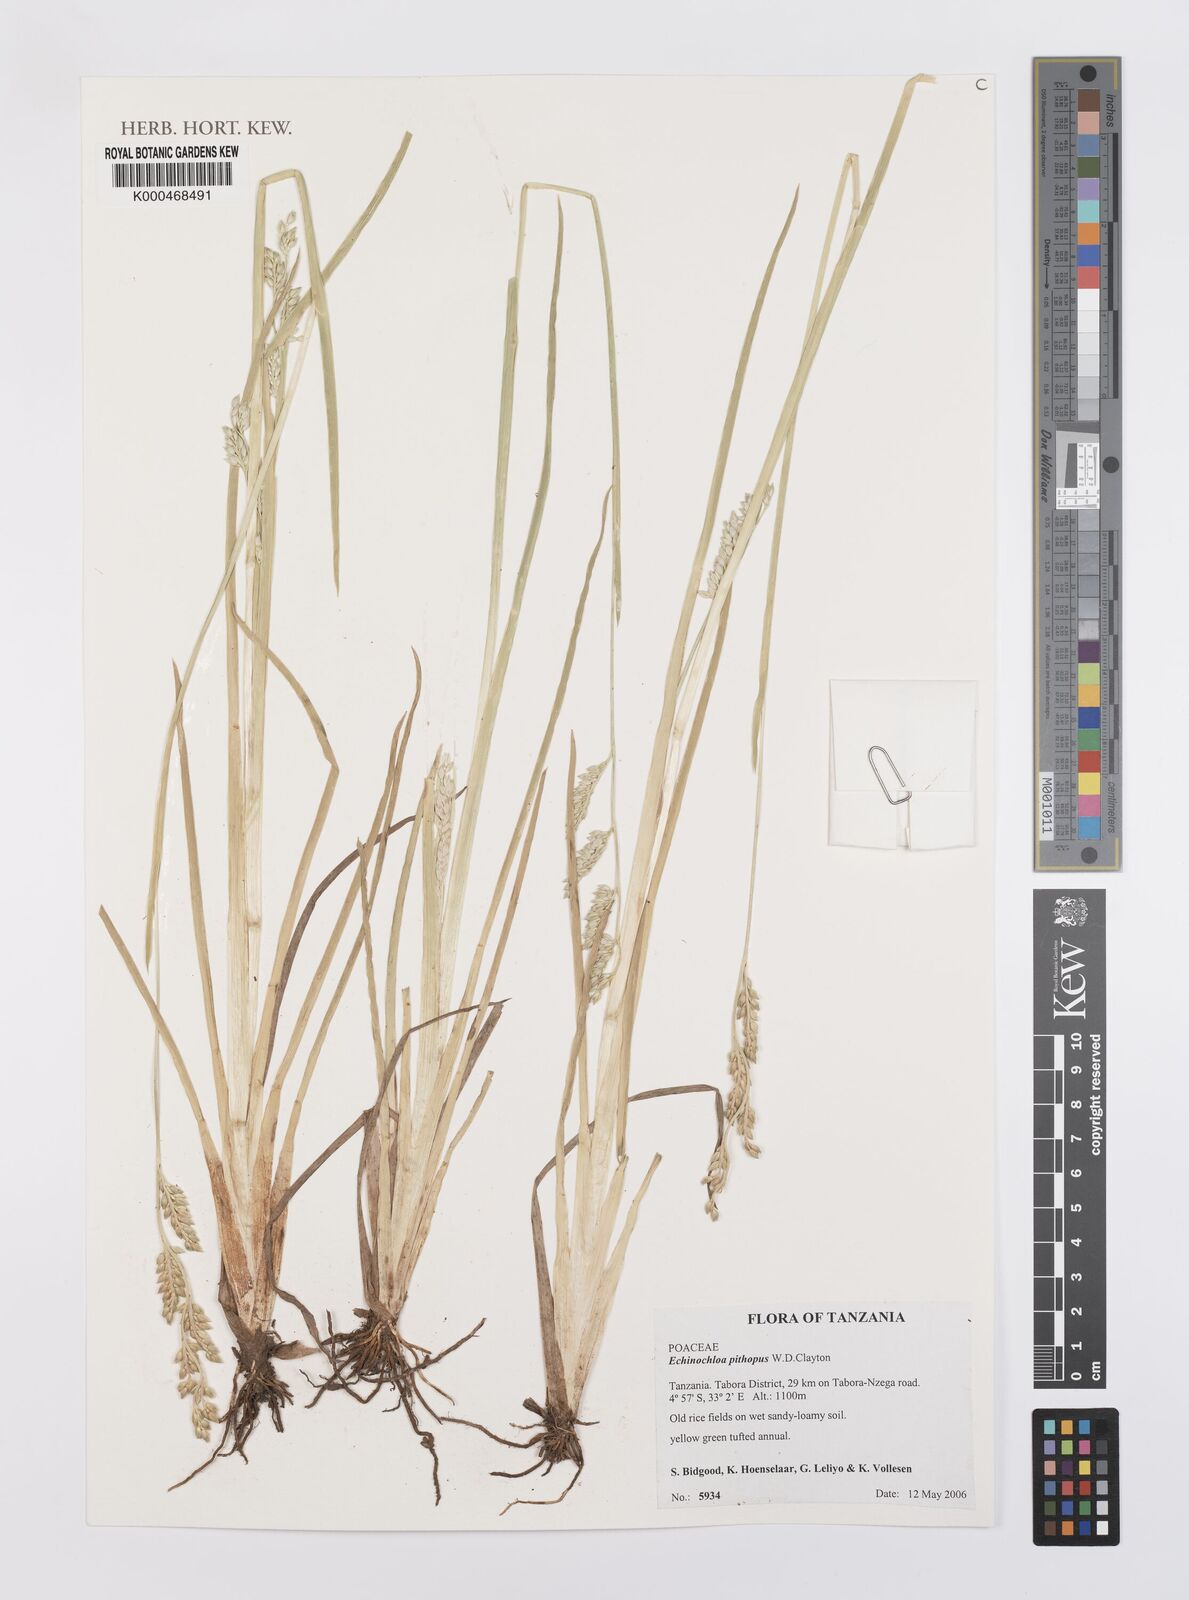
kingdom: Plantae
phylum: Tracheophyta
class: Liliopsida
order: Poales
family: Poaceae
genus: Echinochloa
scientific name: Echinochloa pithopus
